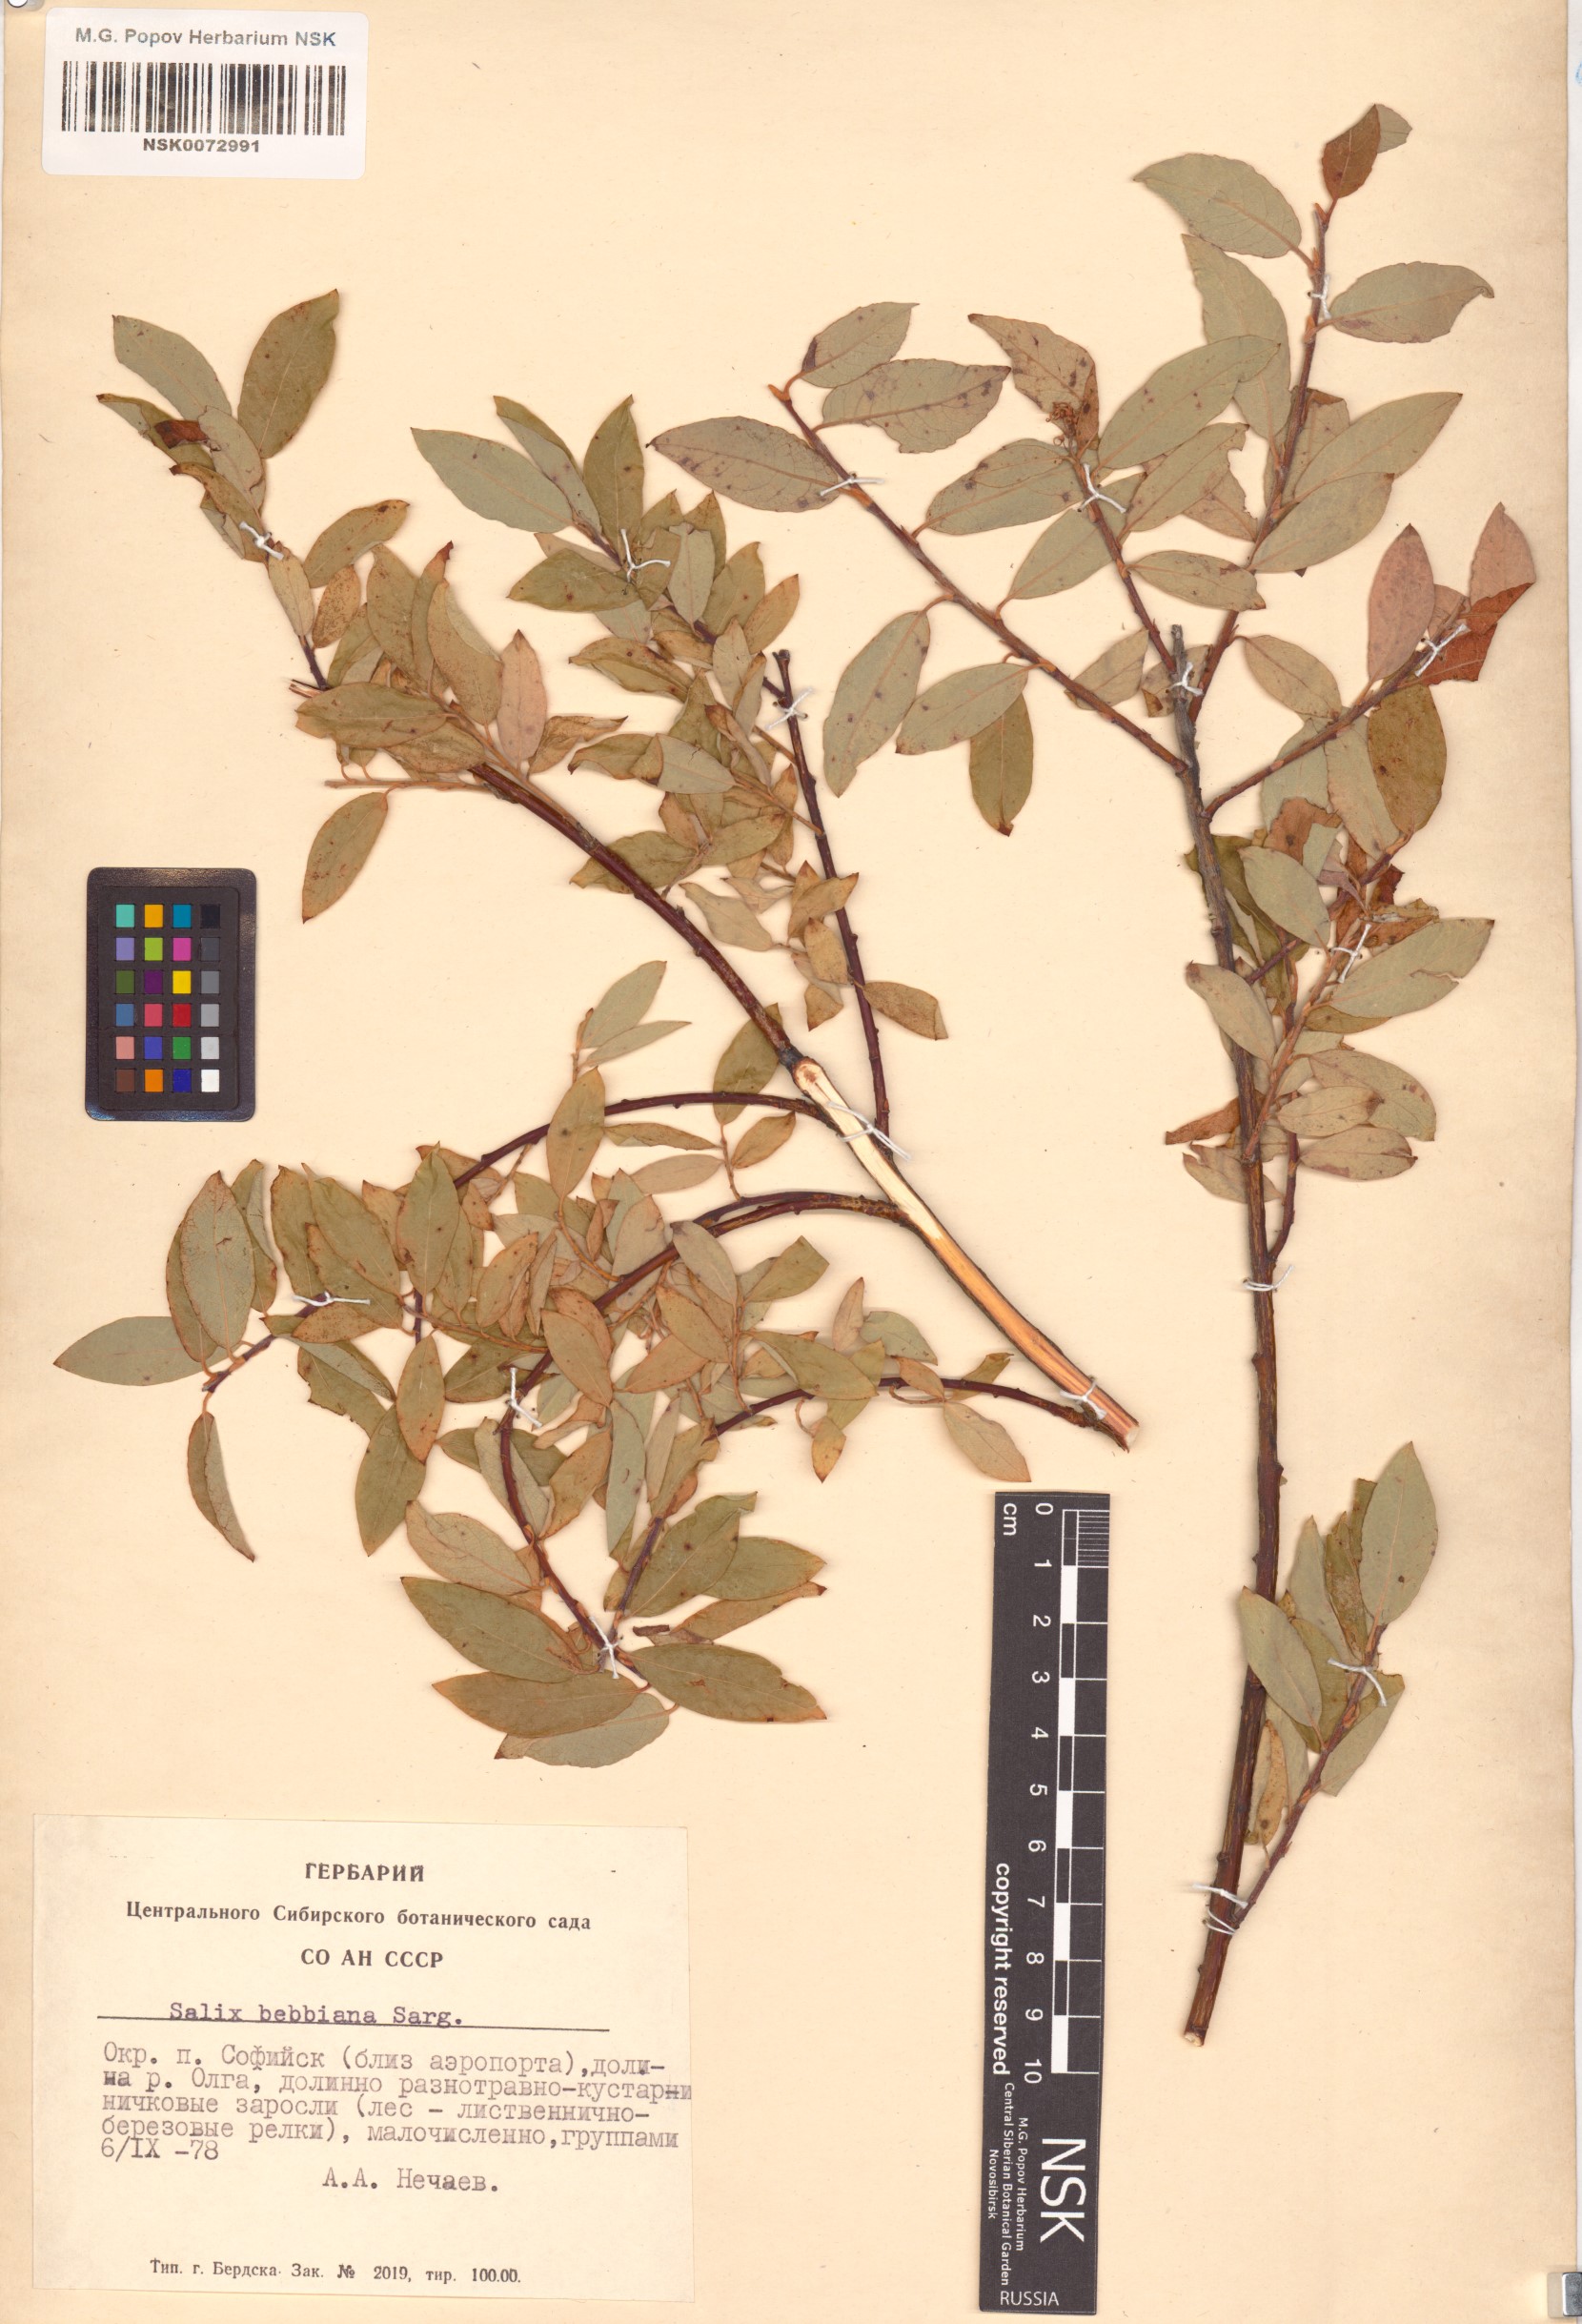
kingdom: Plantae
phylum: Tracheophyta
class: Magnoliopsida
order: Malpighiales
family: Salicaceae
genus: Salix
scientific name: Salix bebbiana
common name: Bebb's willow
